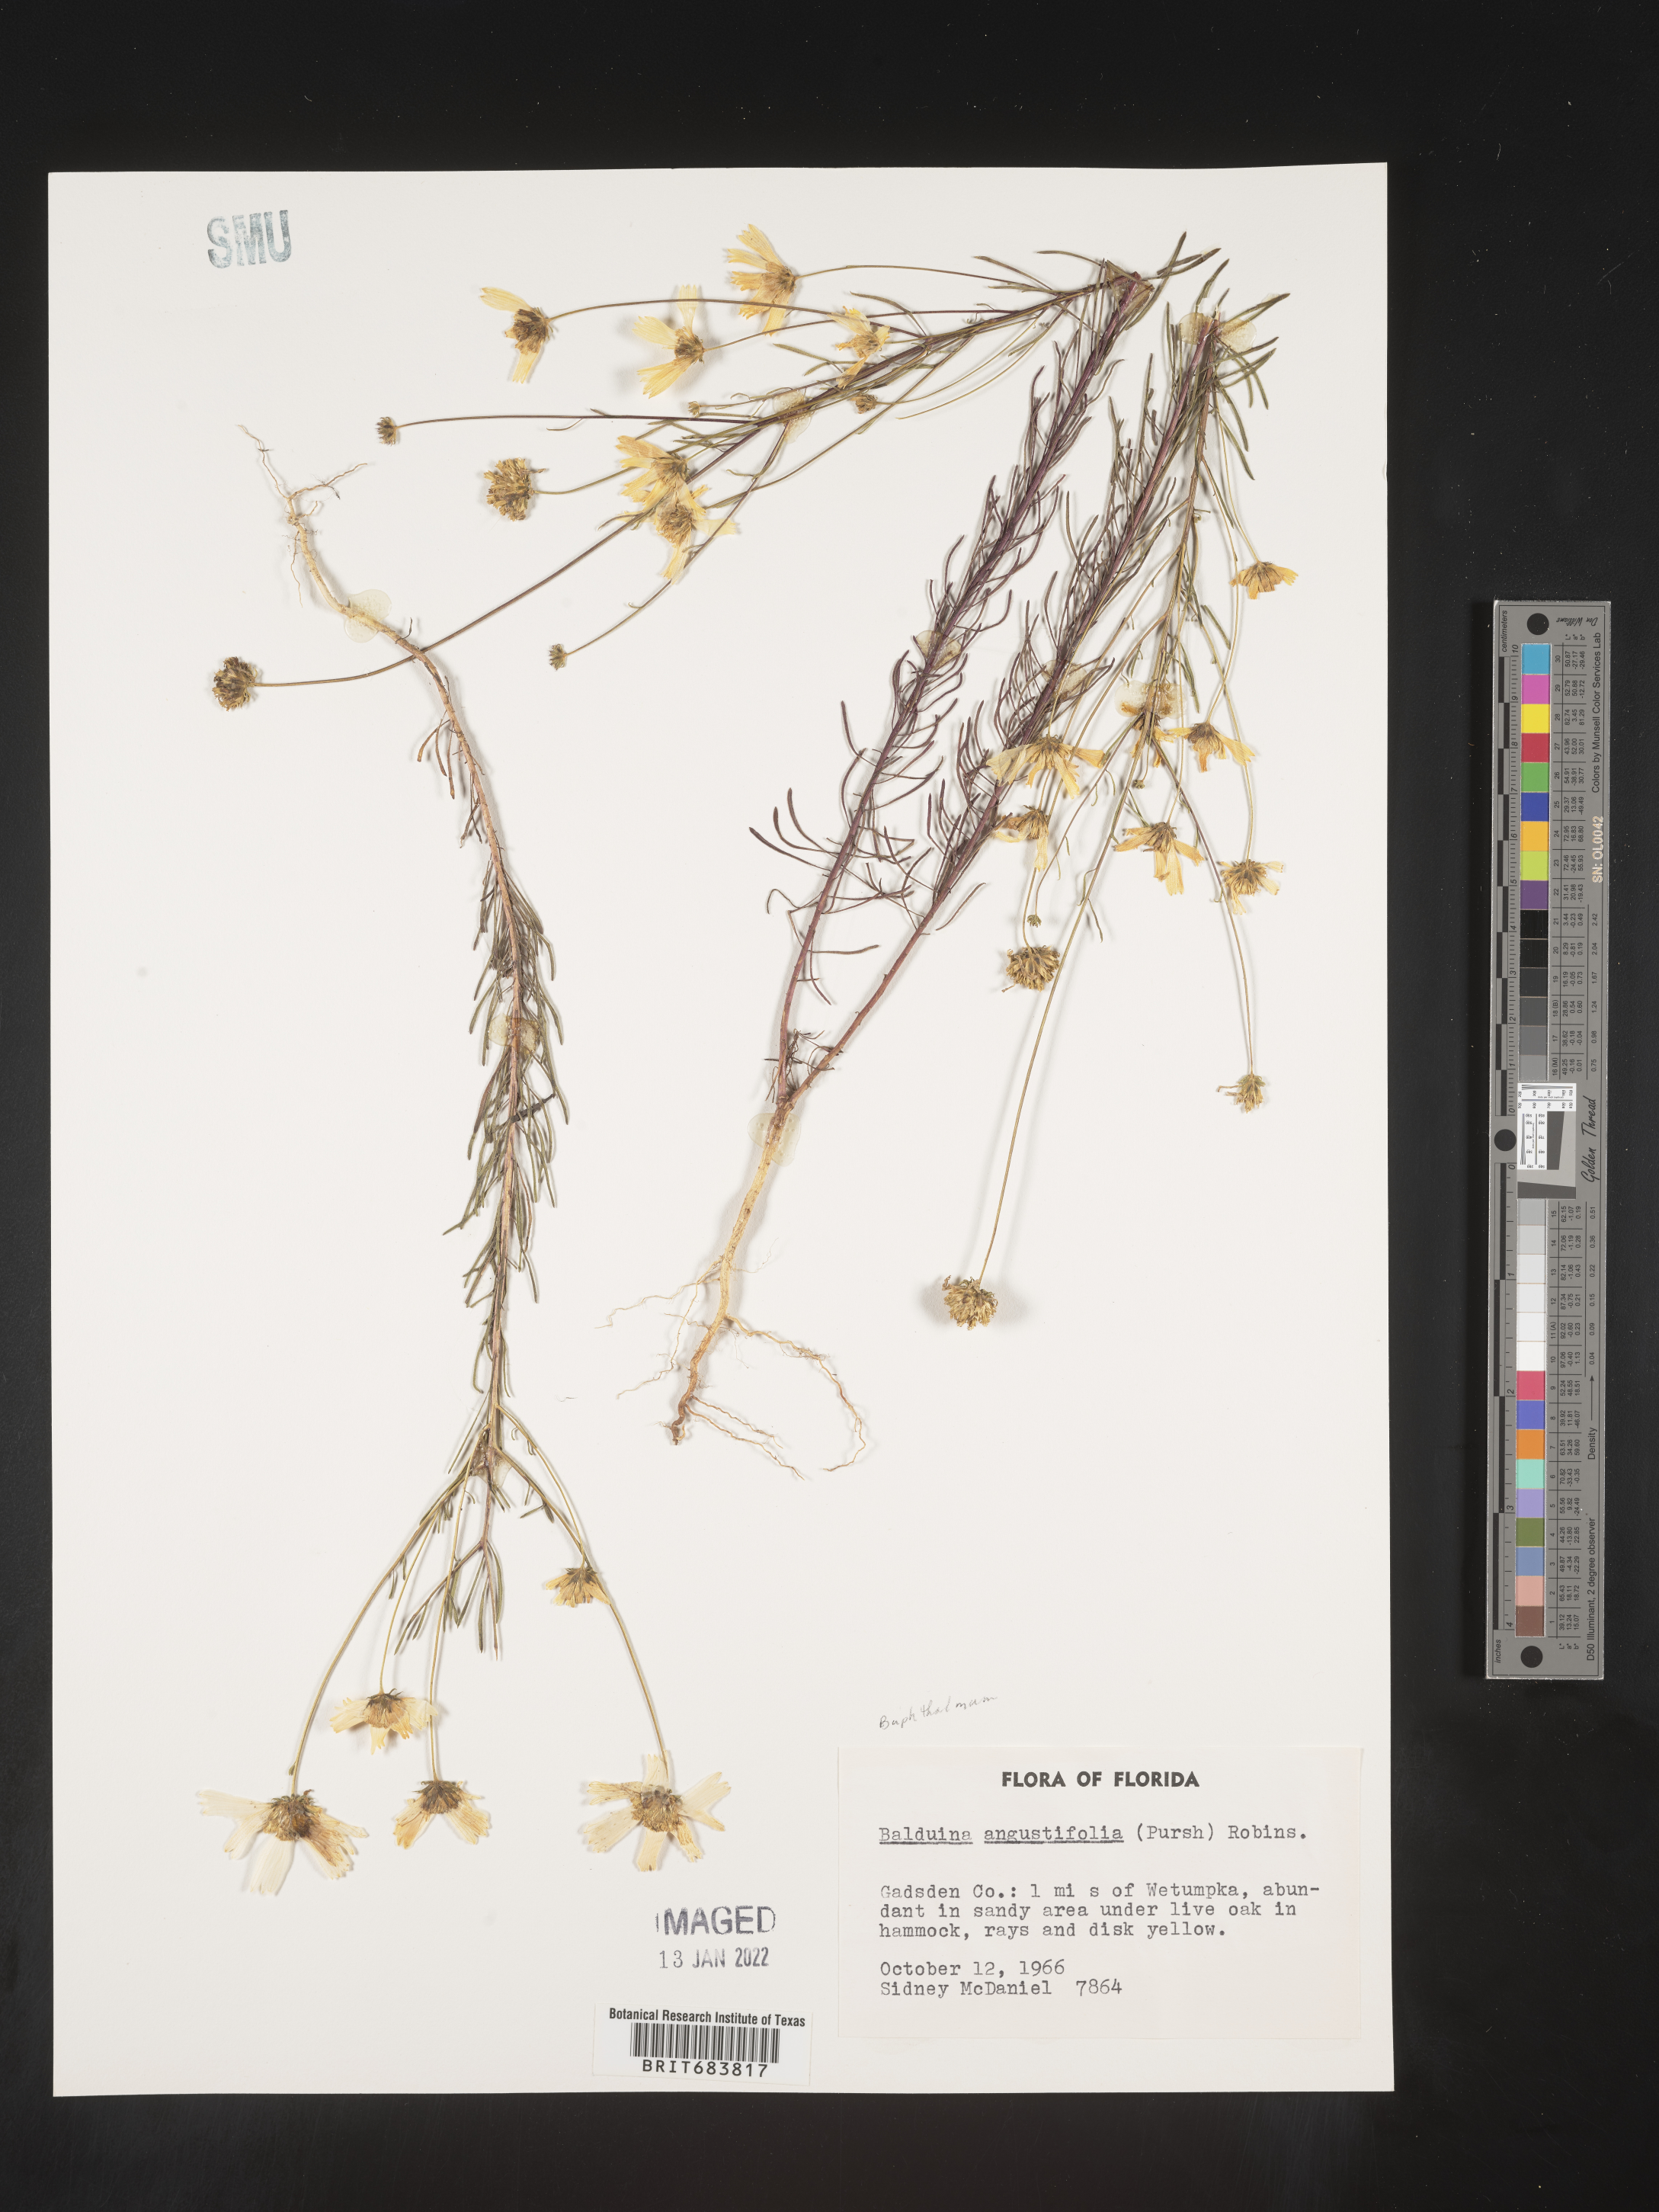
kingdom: Plantae
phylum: Tracheophyta
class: Magnoliopsida
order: Asterales
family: Asteraceae
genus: Balduina
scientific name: Balduina angustifolia
